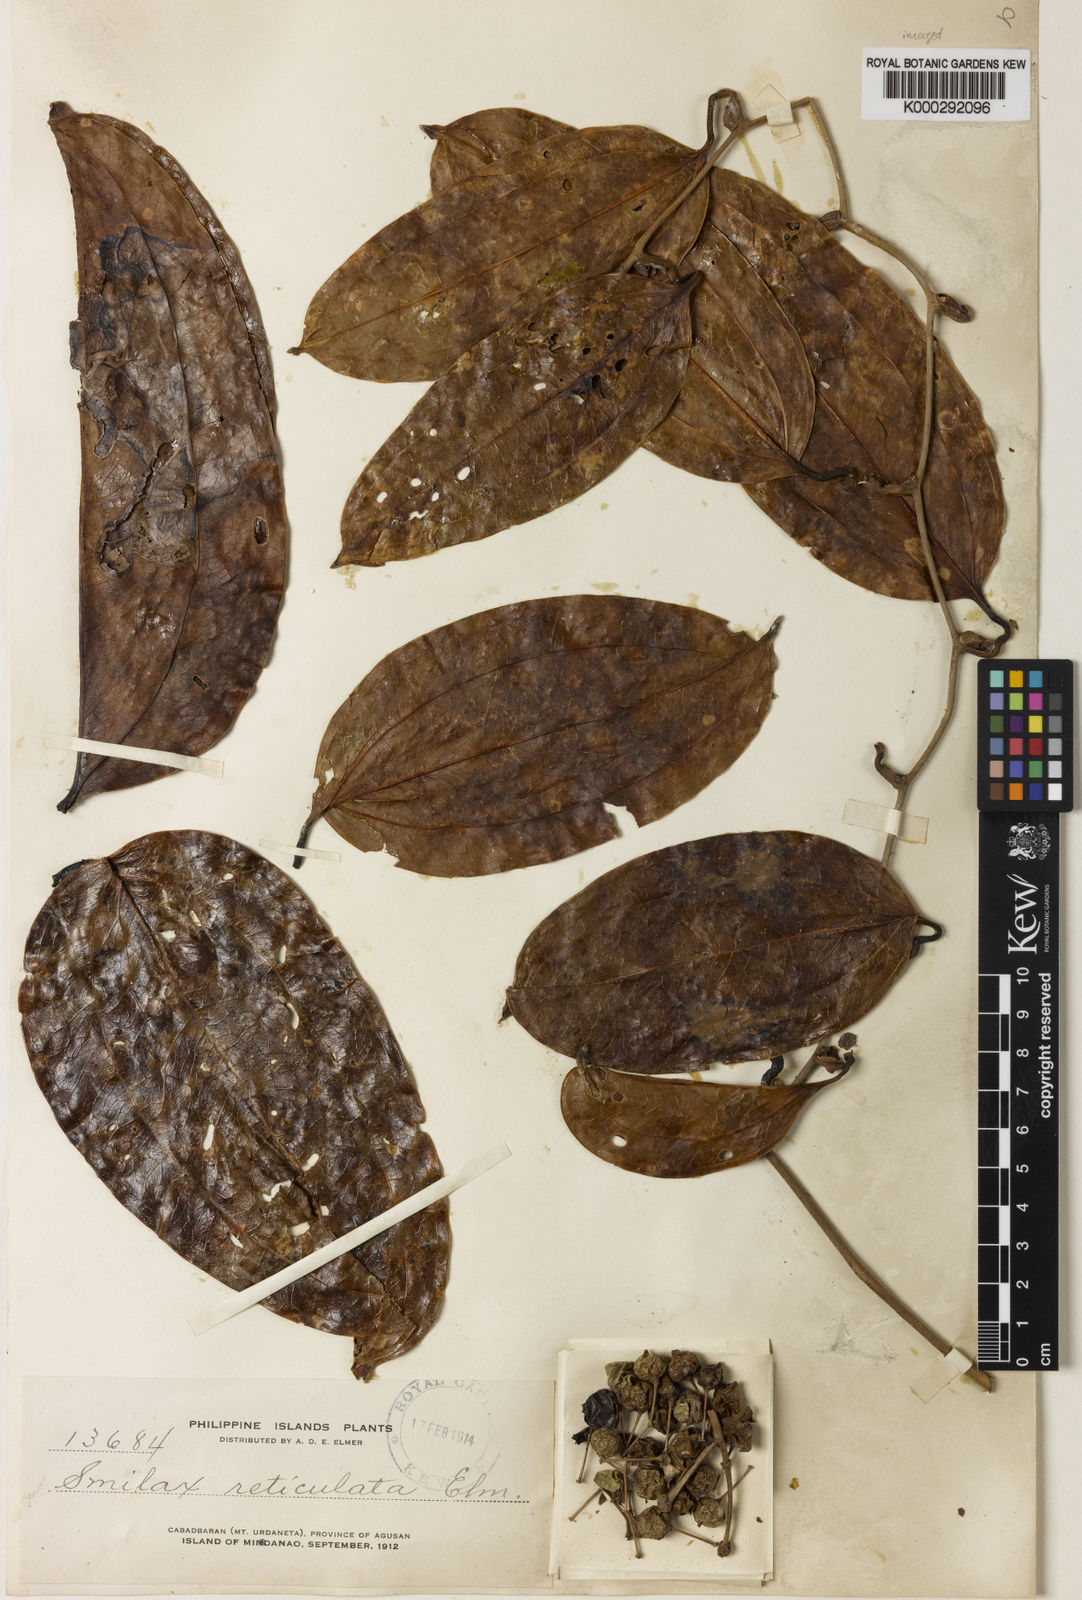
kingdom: Plantae
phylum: Tracheophyta
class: Liliopsida
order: Liliales
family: Smilacaceae
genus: Smilax
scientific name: Smilax elmeri
